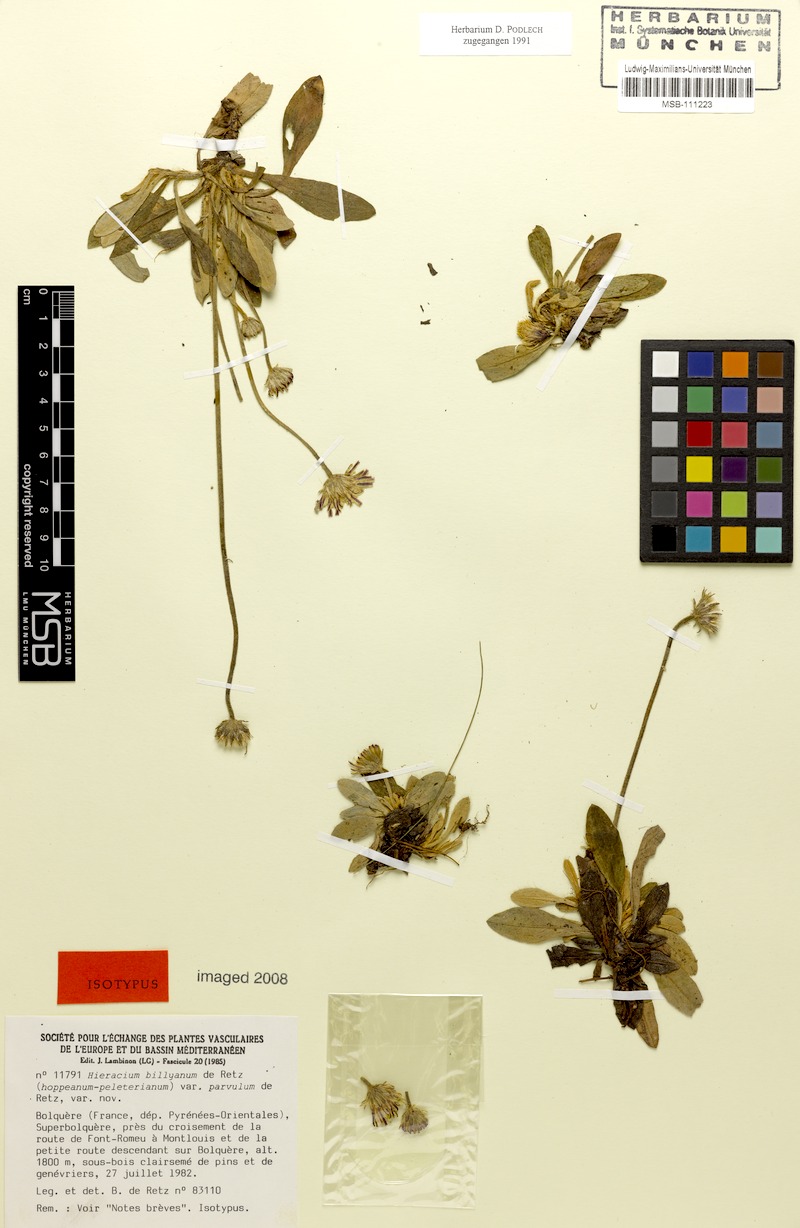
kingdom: Plantae
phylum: Tracheophyta
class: Magnoliopsida
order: Asterales
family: Asteraceae
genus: Pilosella
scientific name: Pilosella billyana
